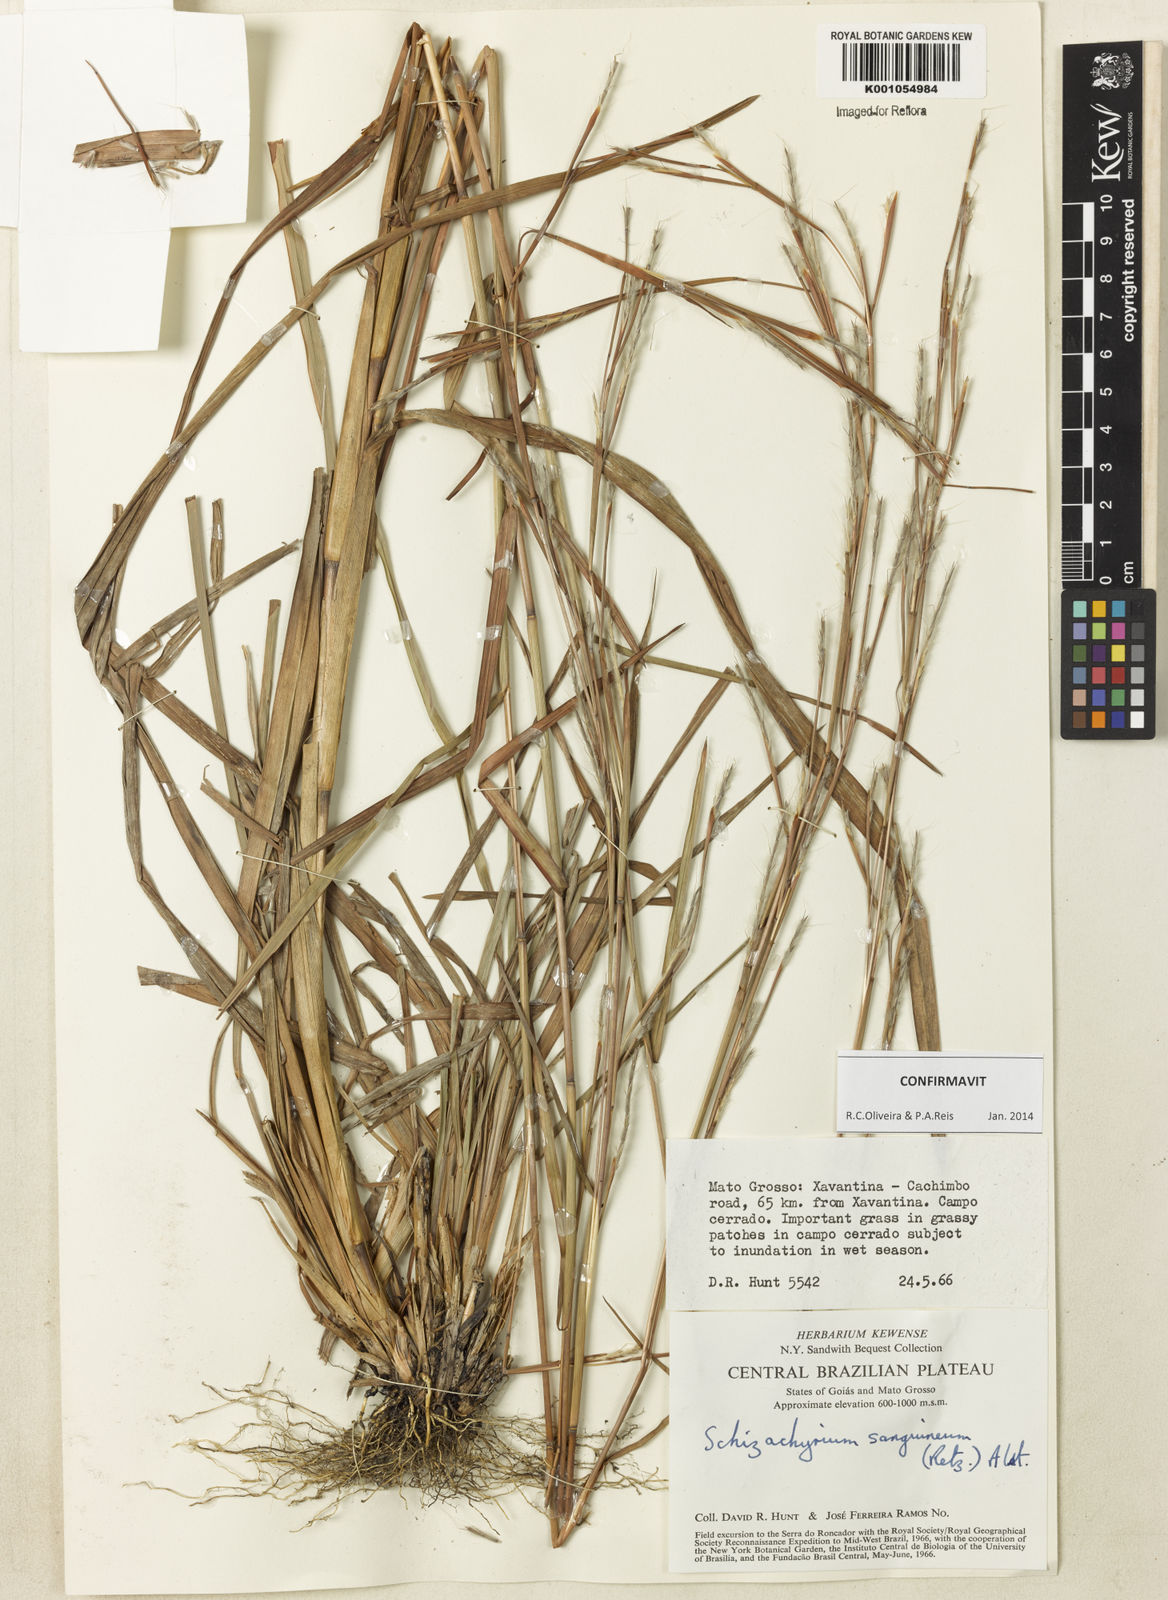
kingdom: Plantae
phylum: Tracheophyta
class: Liliopsida
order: Poales
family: Poaceae
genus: Schizachyrium
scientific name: Schizachyrium sanguineum
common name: Crimson bluestem
